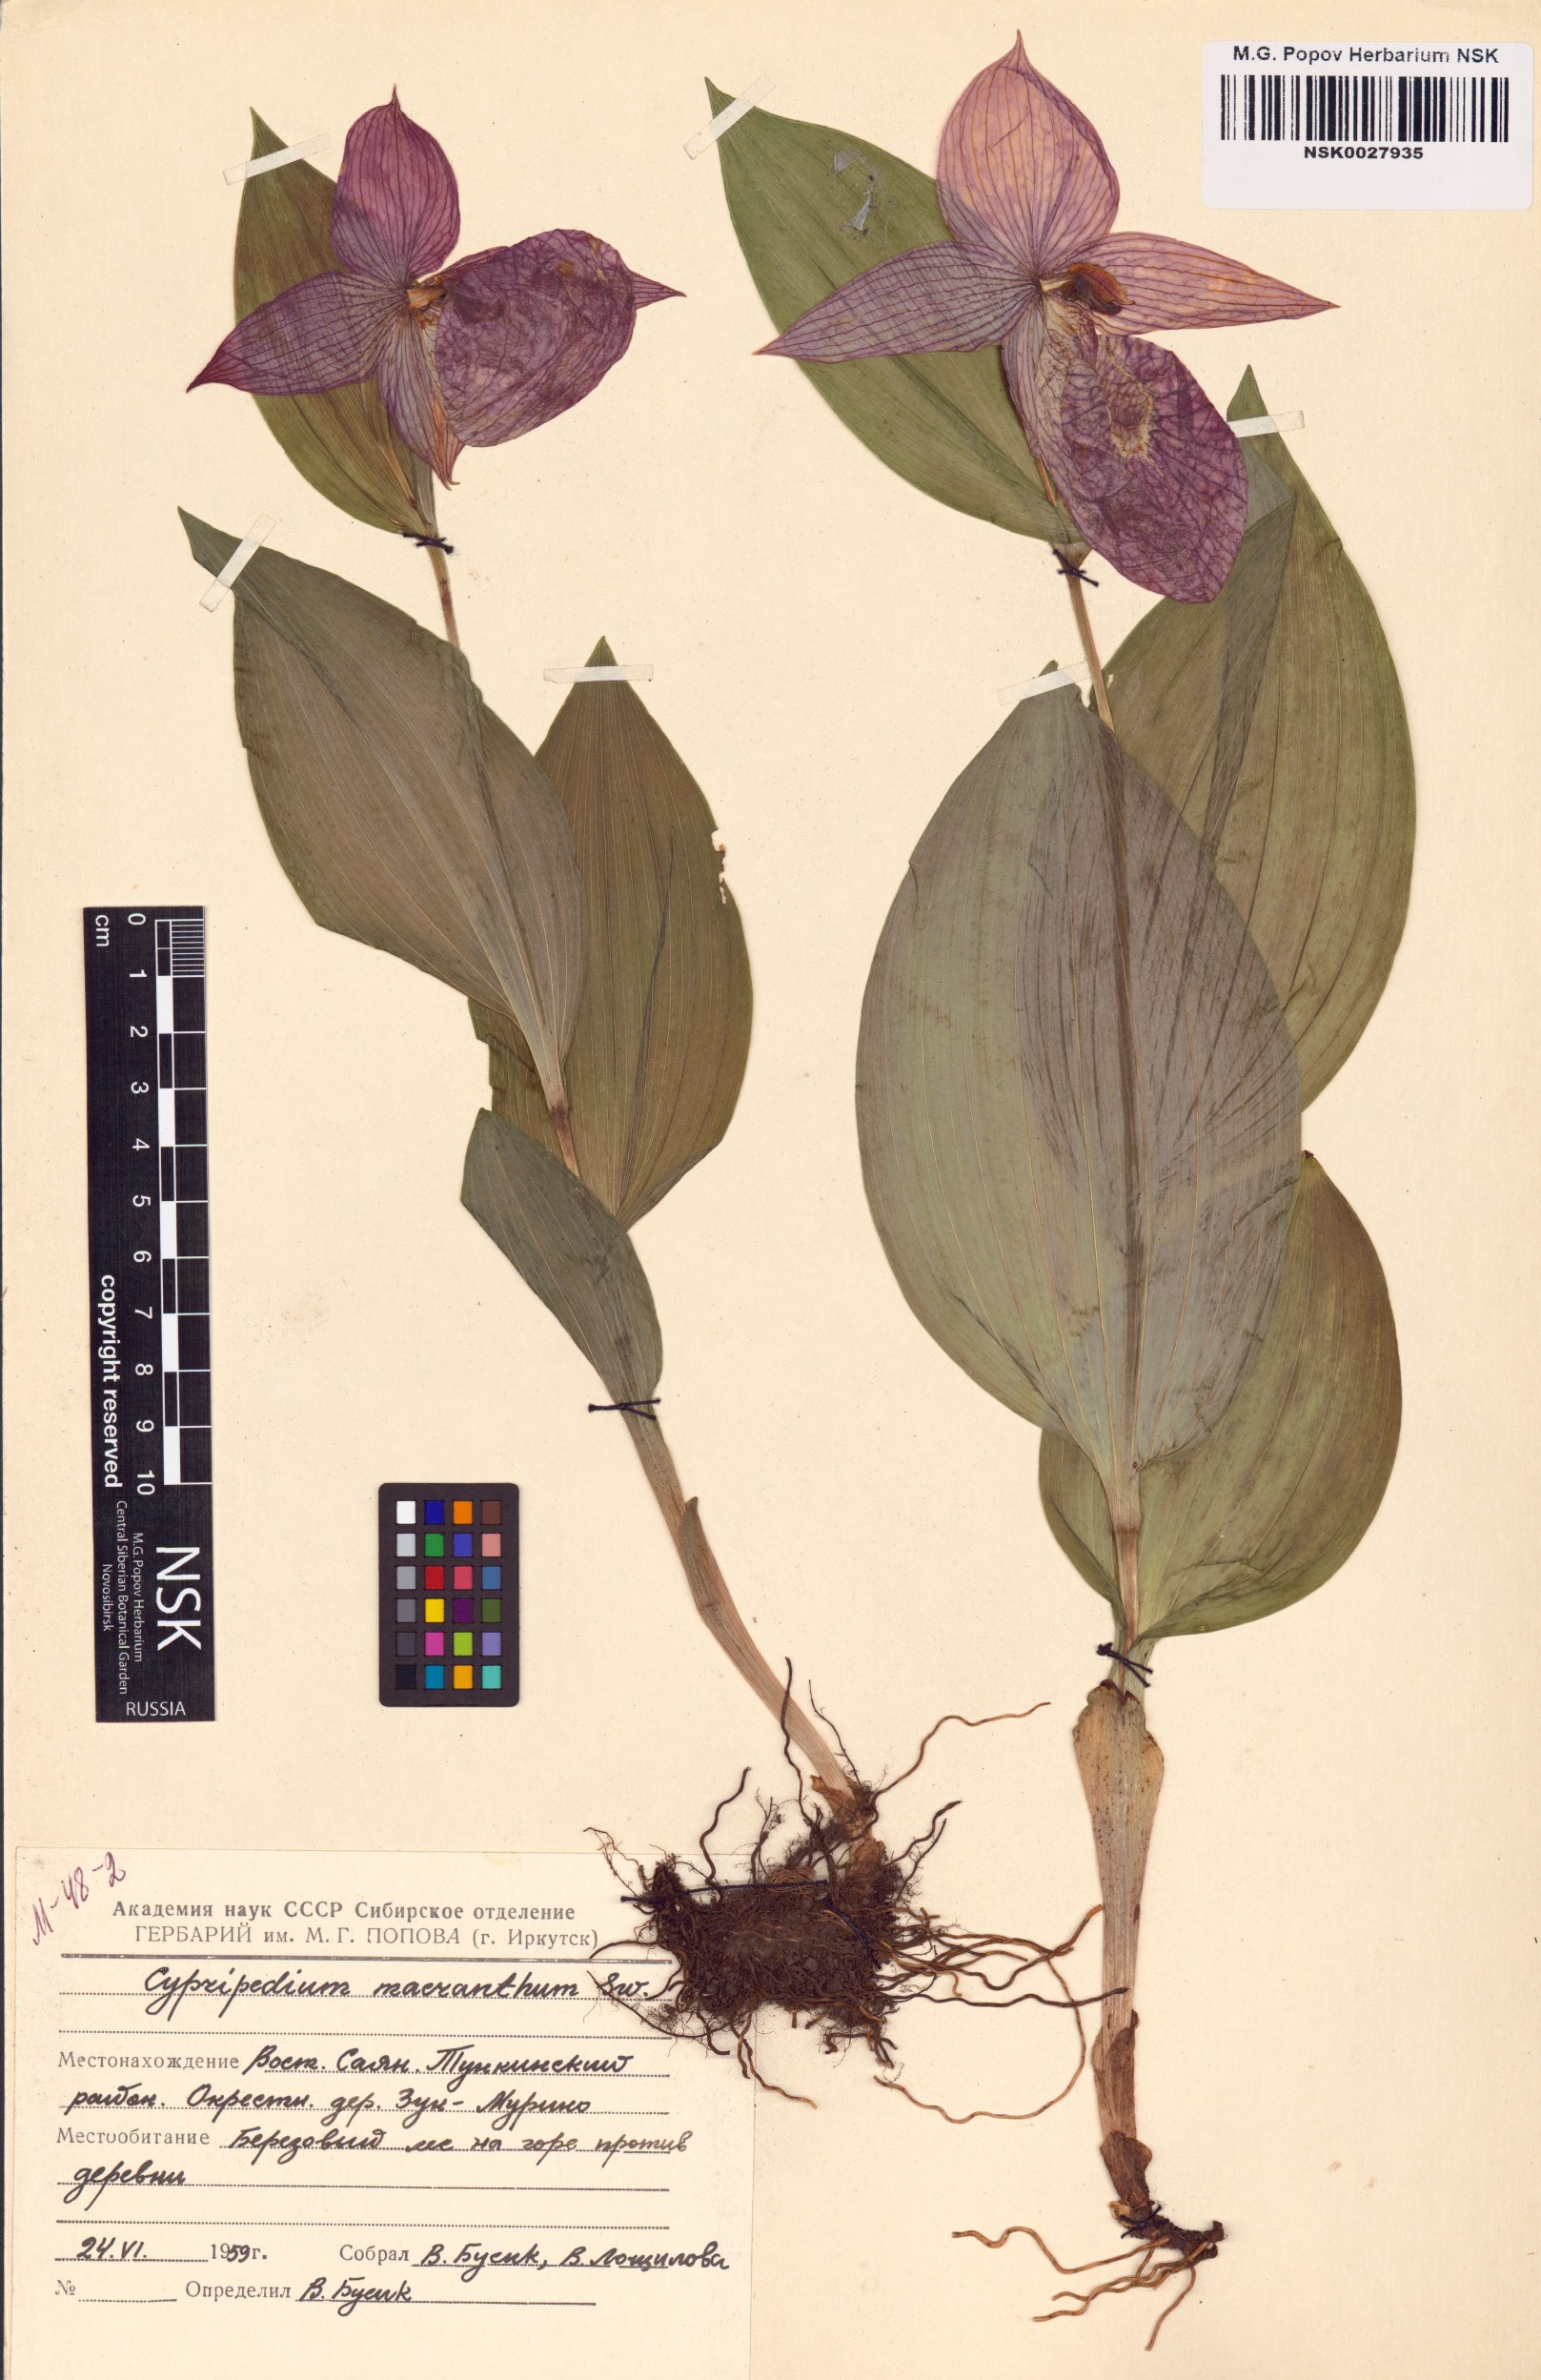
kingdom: Plantae
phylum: Tracheophyta
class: Liliopsida
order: Asparagales
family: Orchidaceae
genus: Cypripedium
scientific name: Cypripedium macranthos
